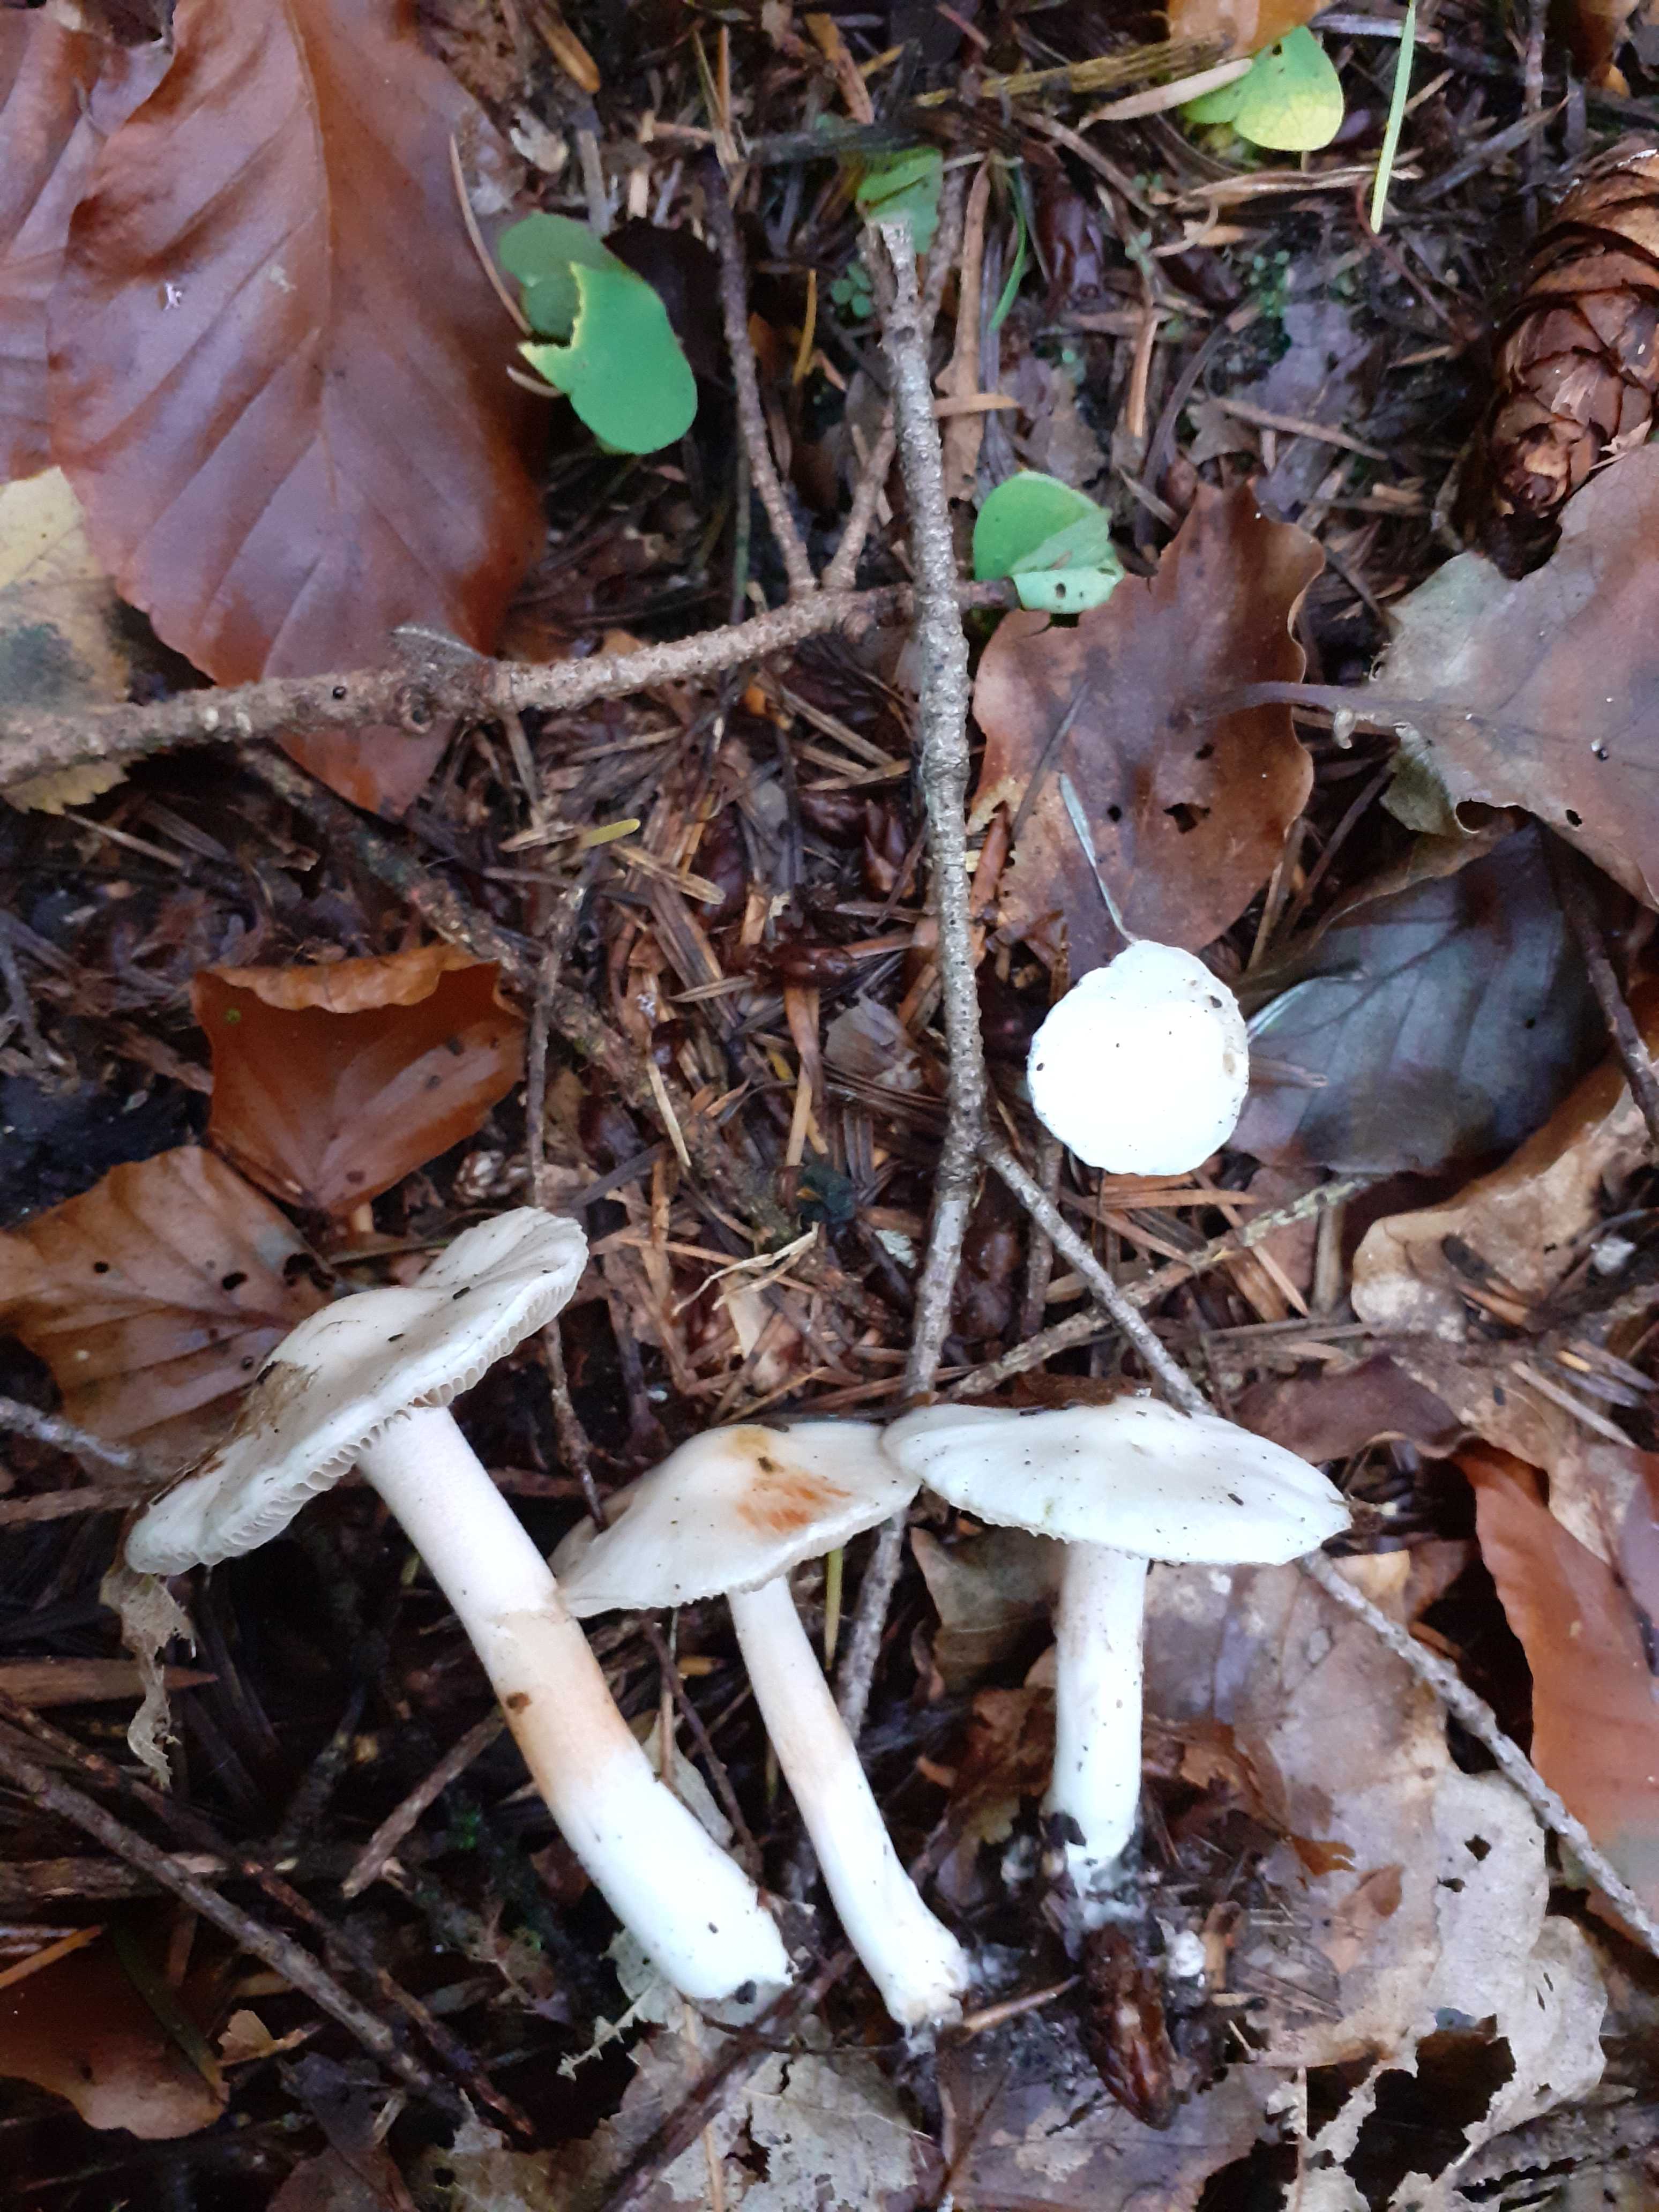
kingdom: Fungi
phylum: Basidiomycota
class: Agaricomycetes
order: Agaricales
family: Inocybaceae
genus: Inocybe
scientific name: Inocybe
